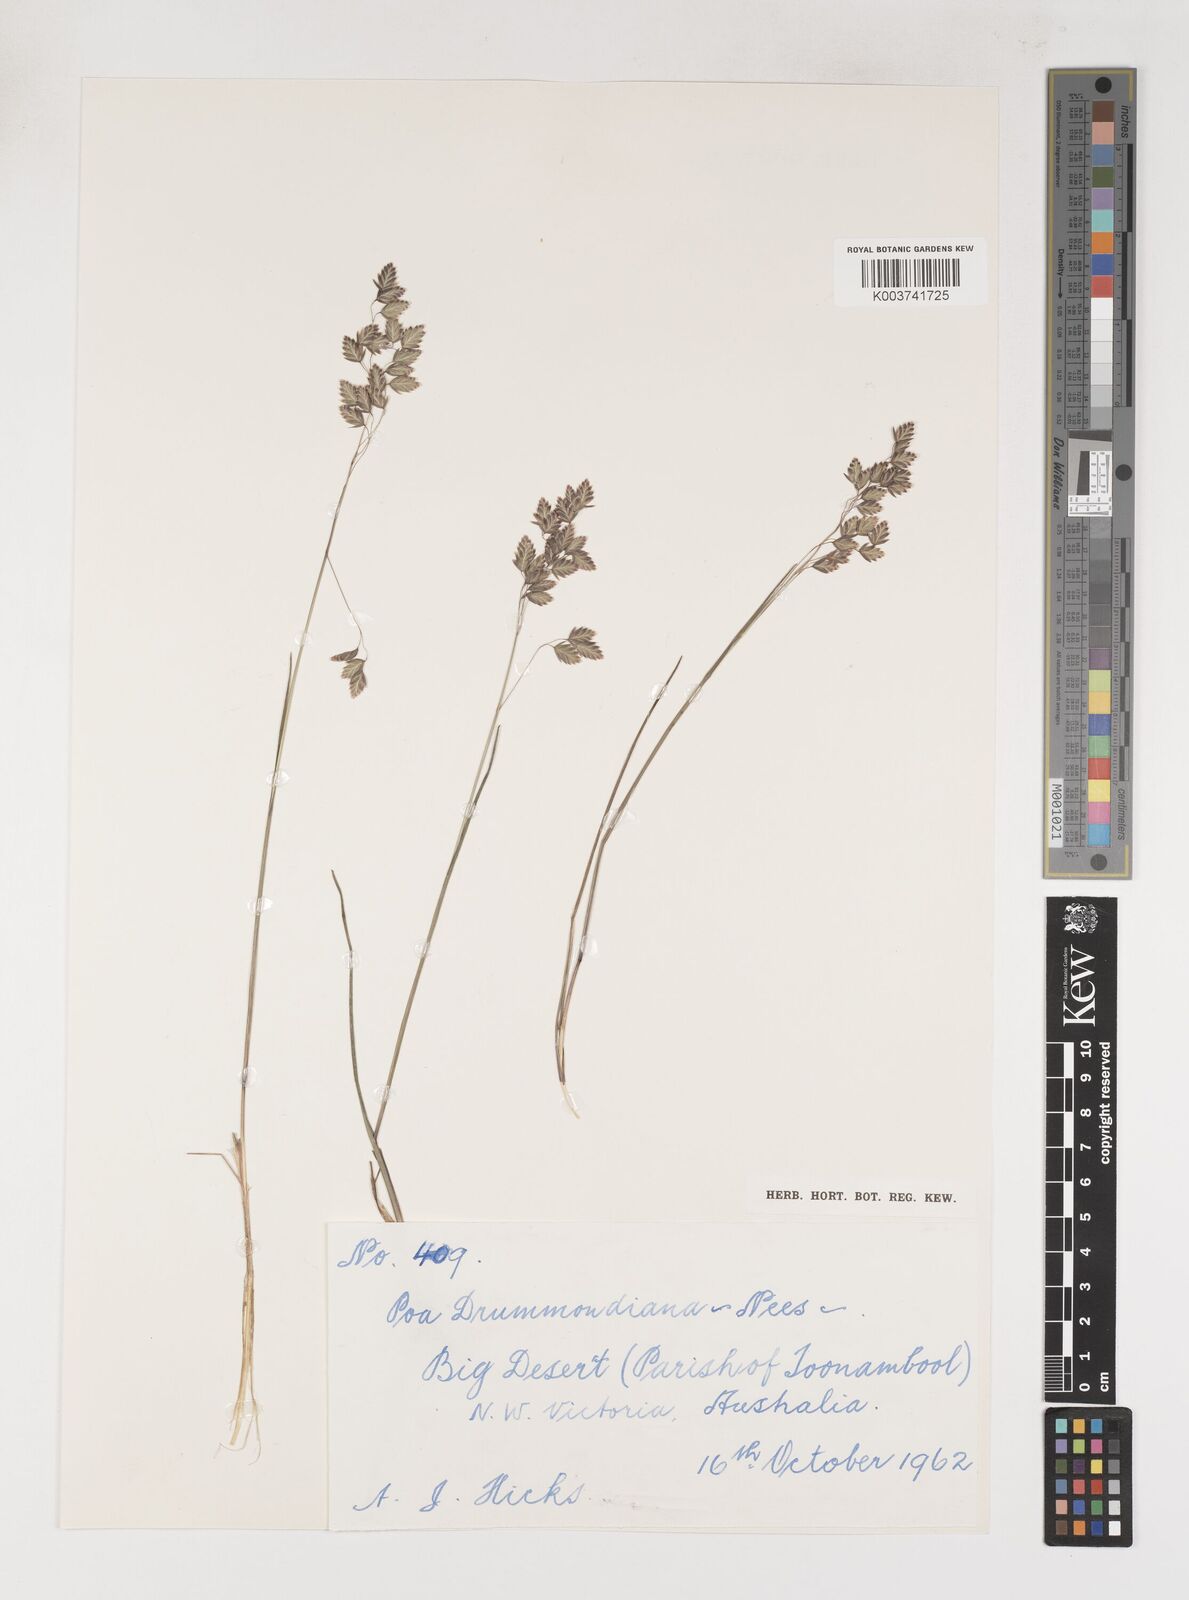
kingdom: Plantae
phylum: Tracheophyta
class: Liliopsida
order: Poales
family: Poaceae
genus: Poa
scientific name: Poa drummondiana
